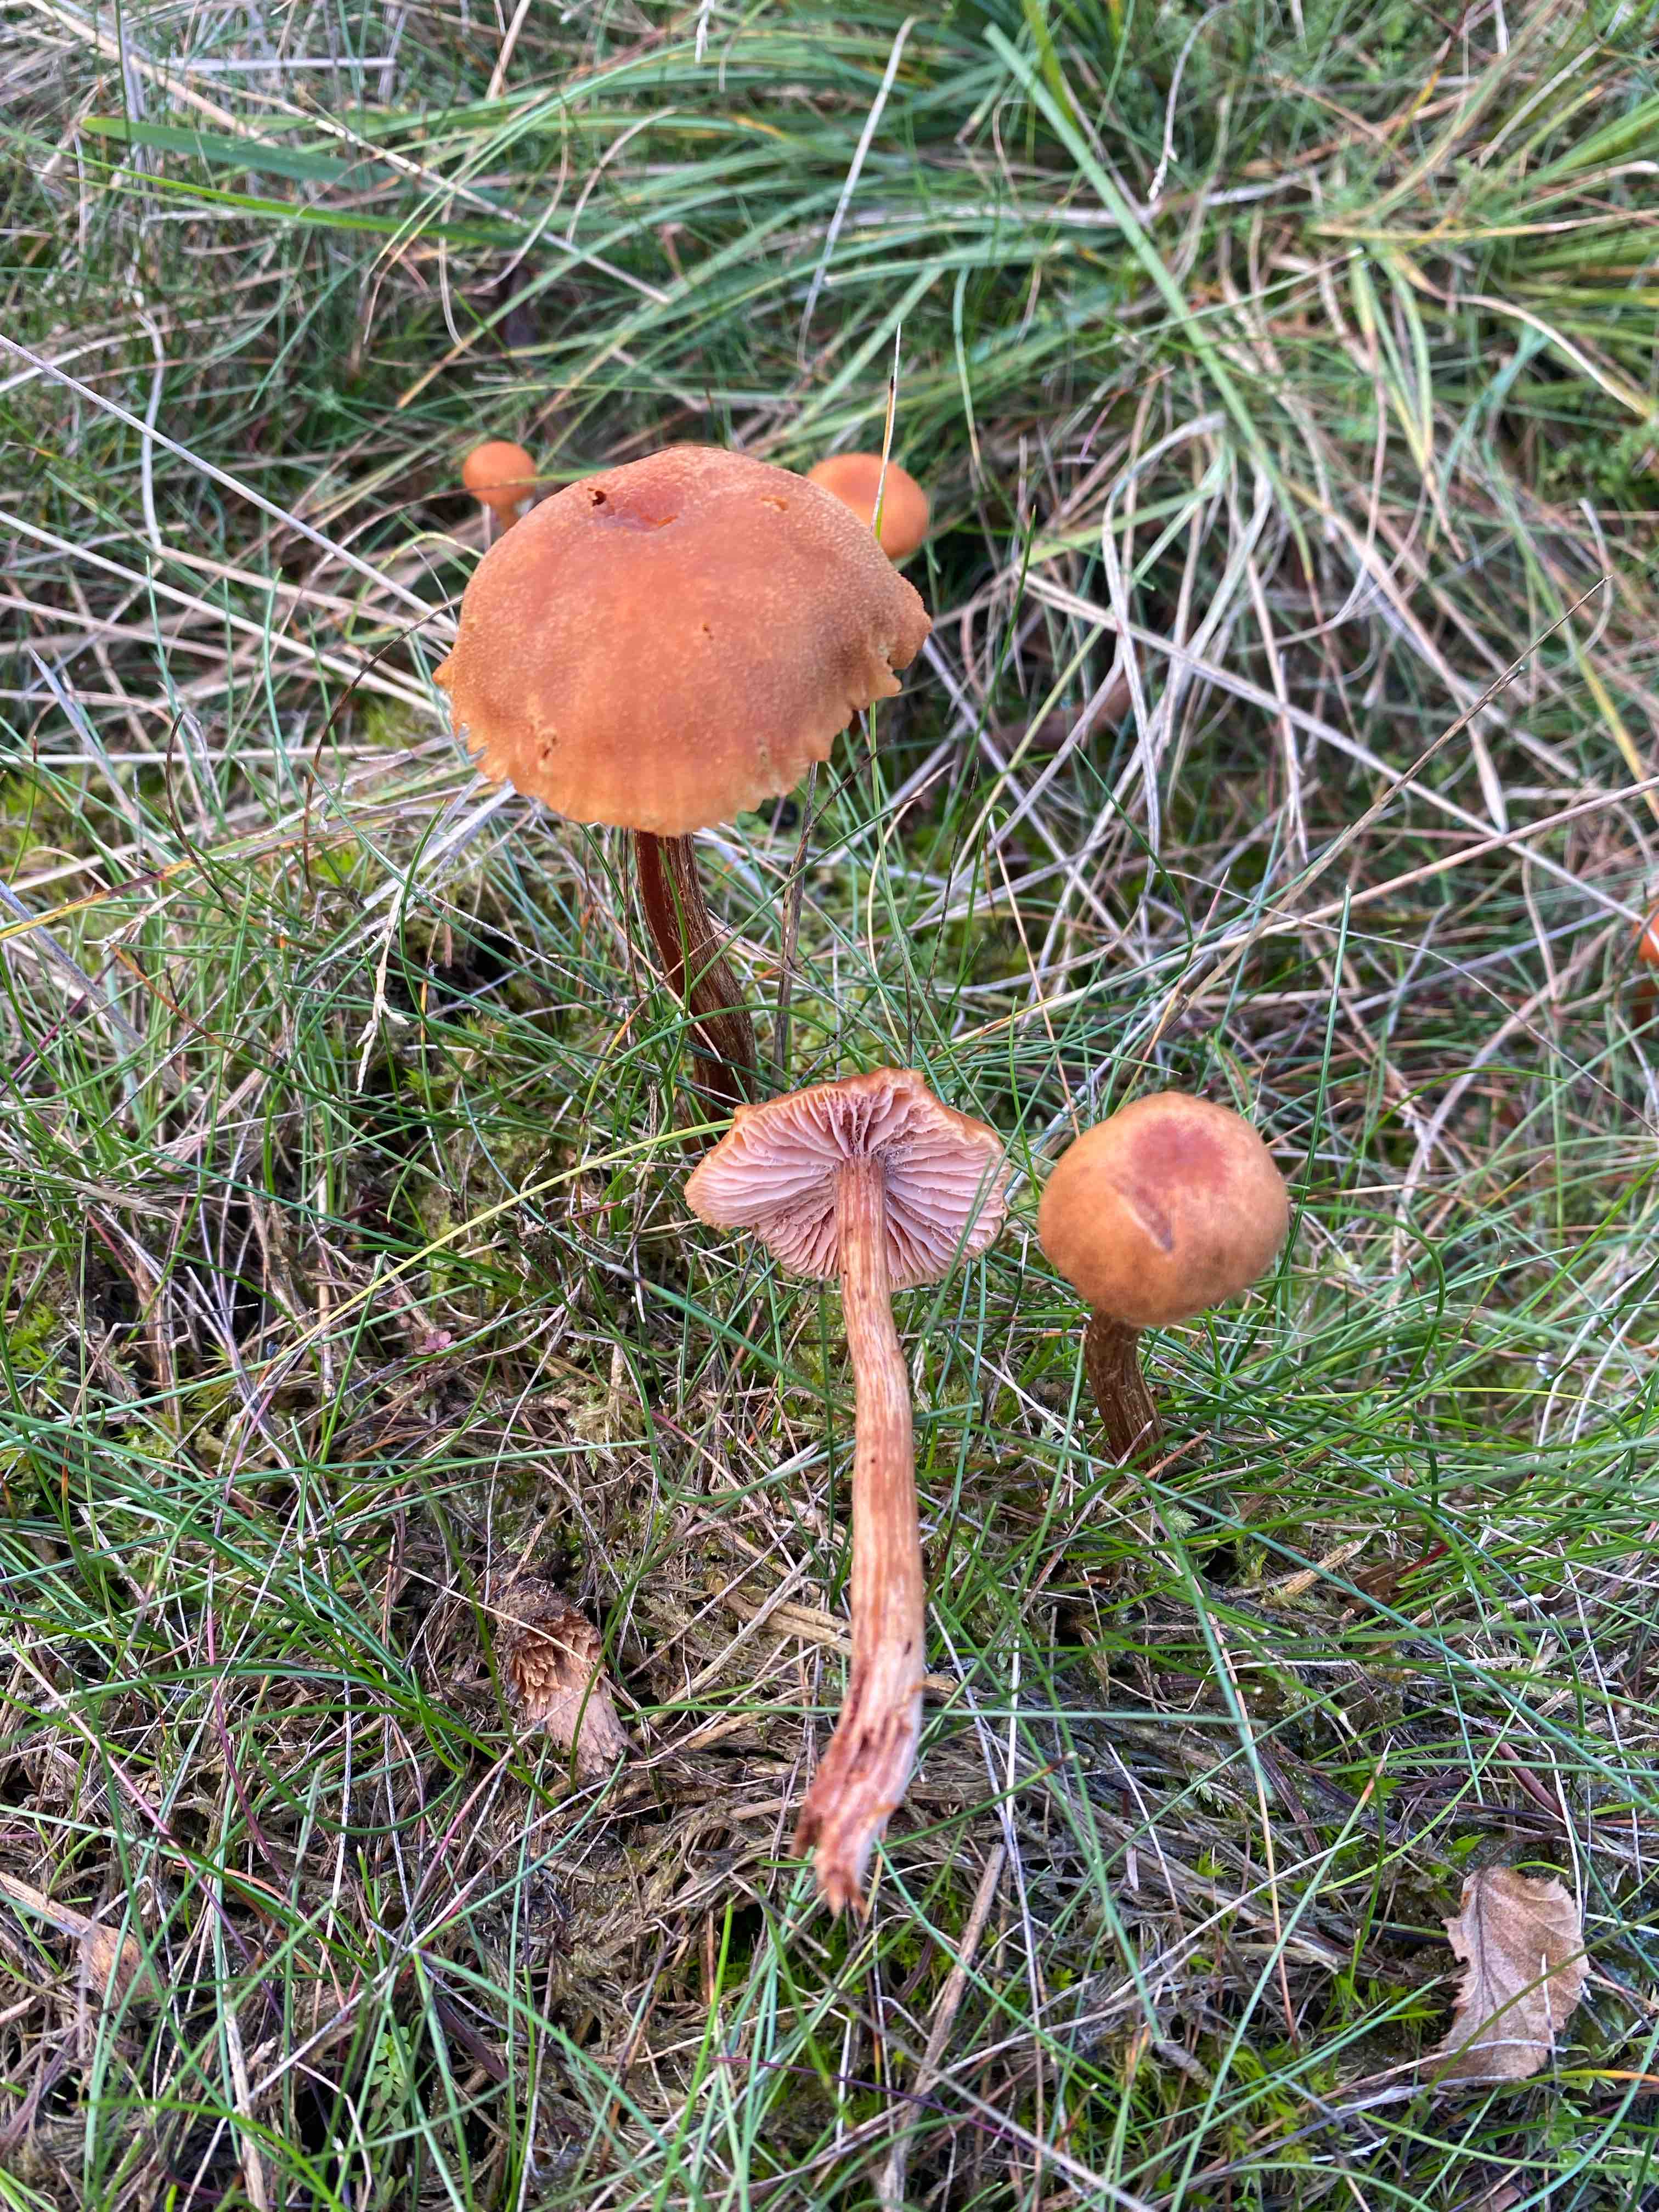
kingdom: Fungi
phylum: Basidiomycota
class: Agaricomycetes
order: Agaricales
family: Hydnangiaceae
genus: Laccaria
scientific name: Laccaria proxima
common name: stor ametysthat
